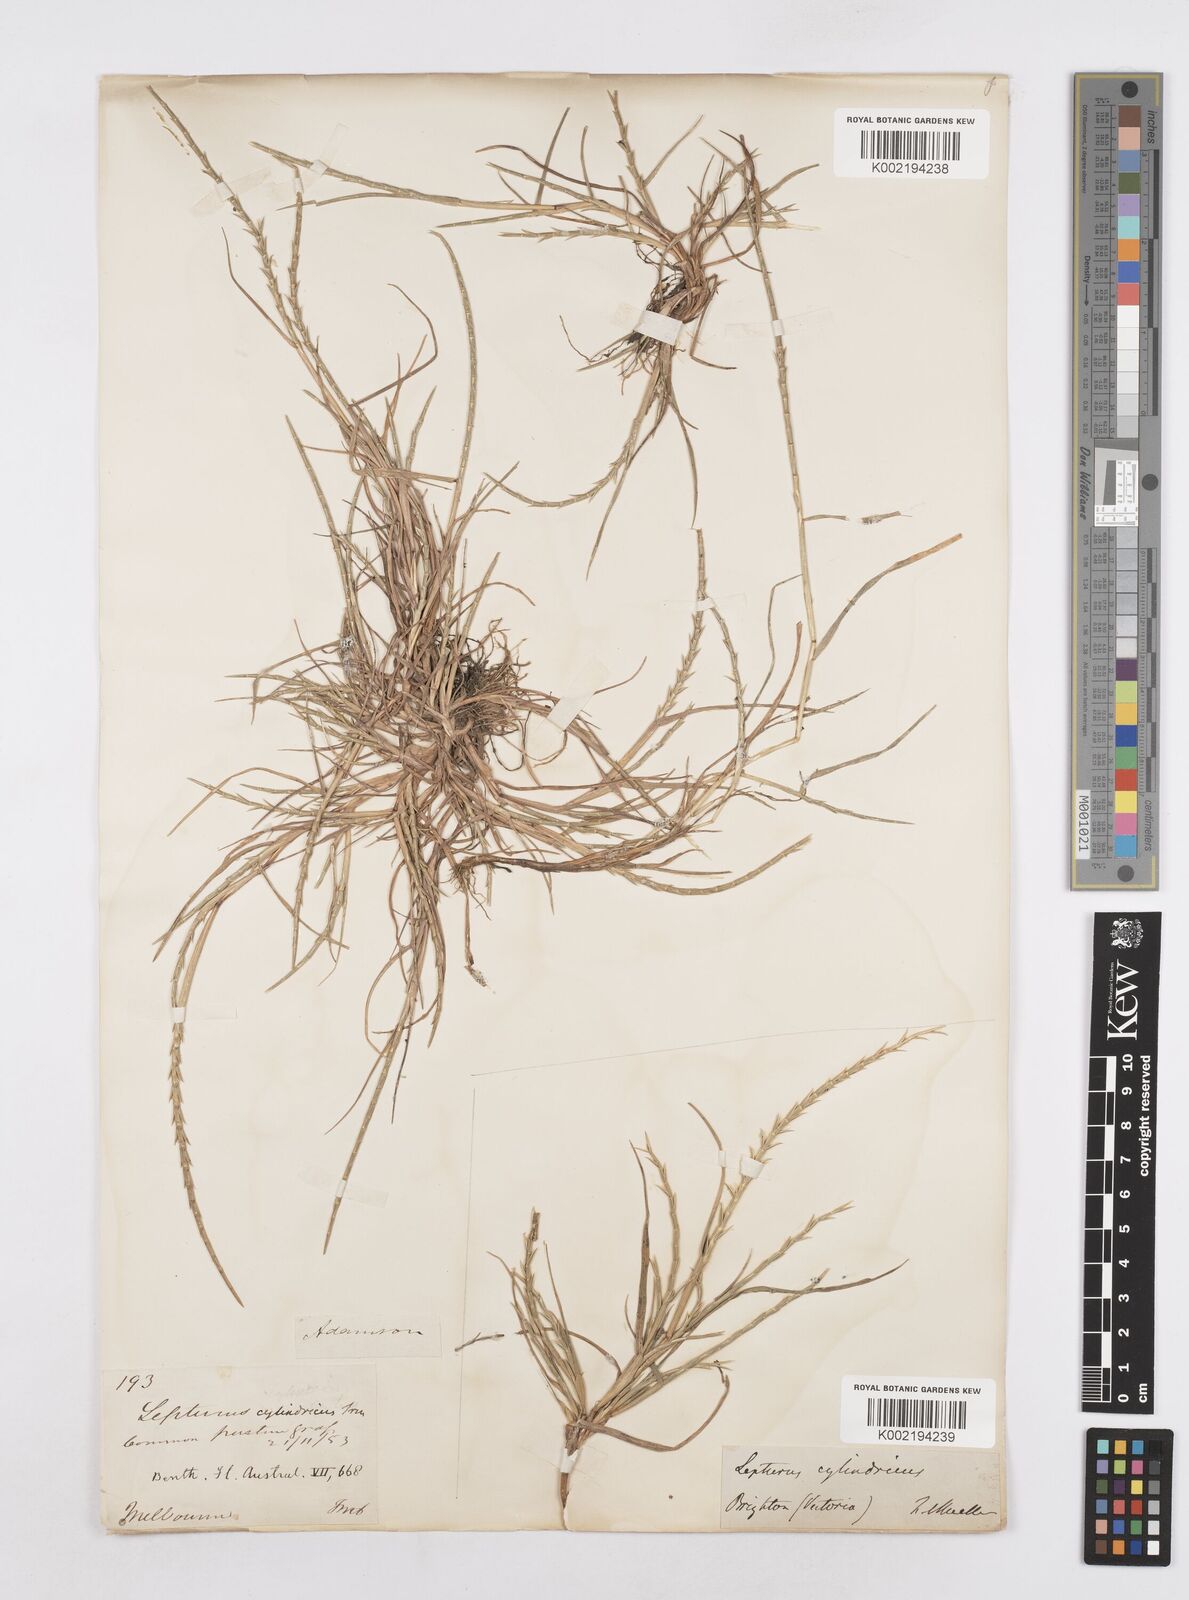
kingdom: Plantae
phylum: Tracheophyta
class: Liliopsida
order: Poales
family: Poaceae
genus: Parapholis
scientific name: Parapholis cylindrica
